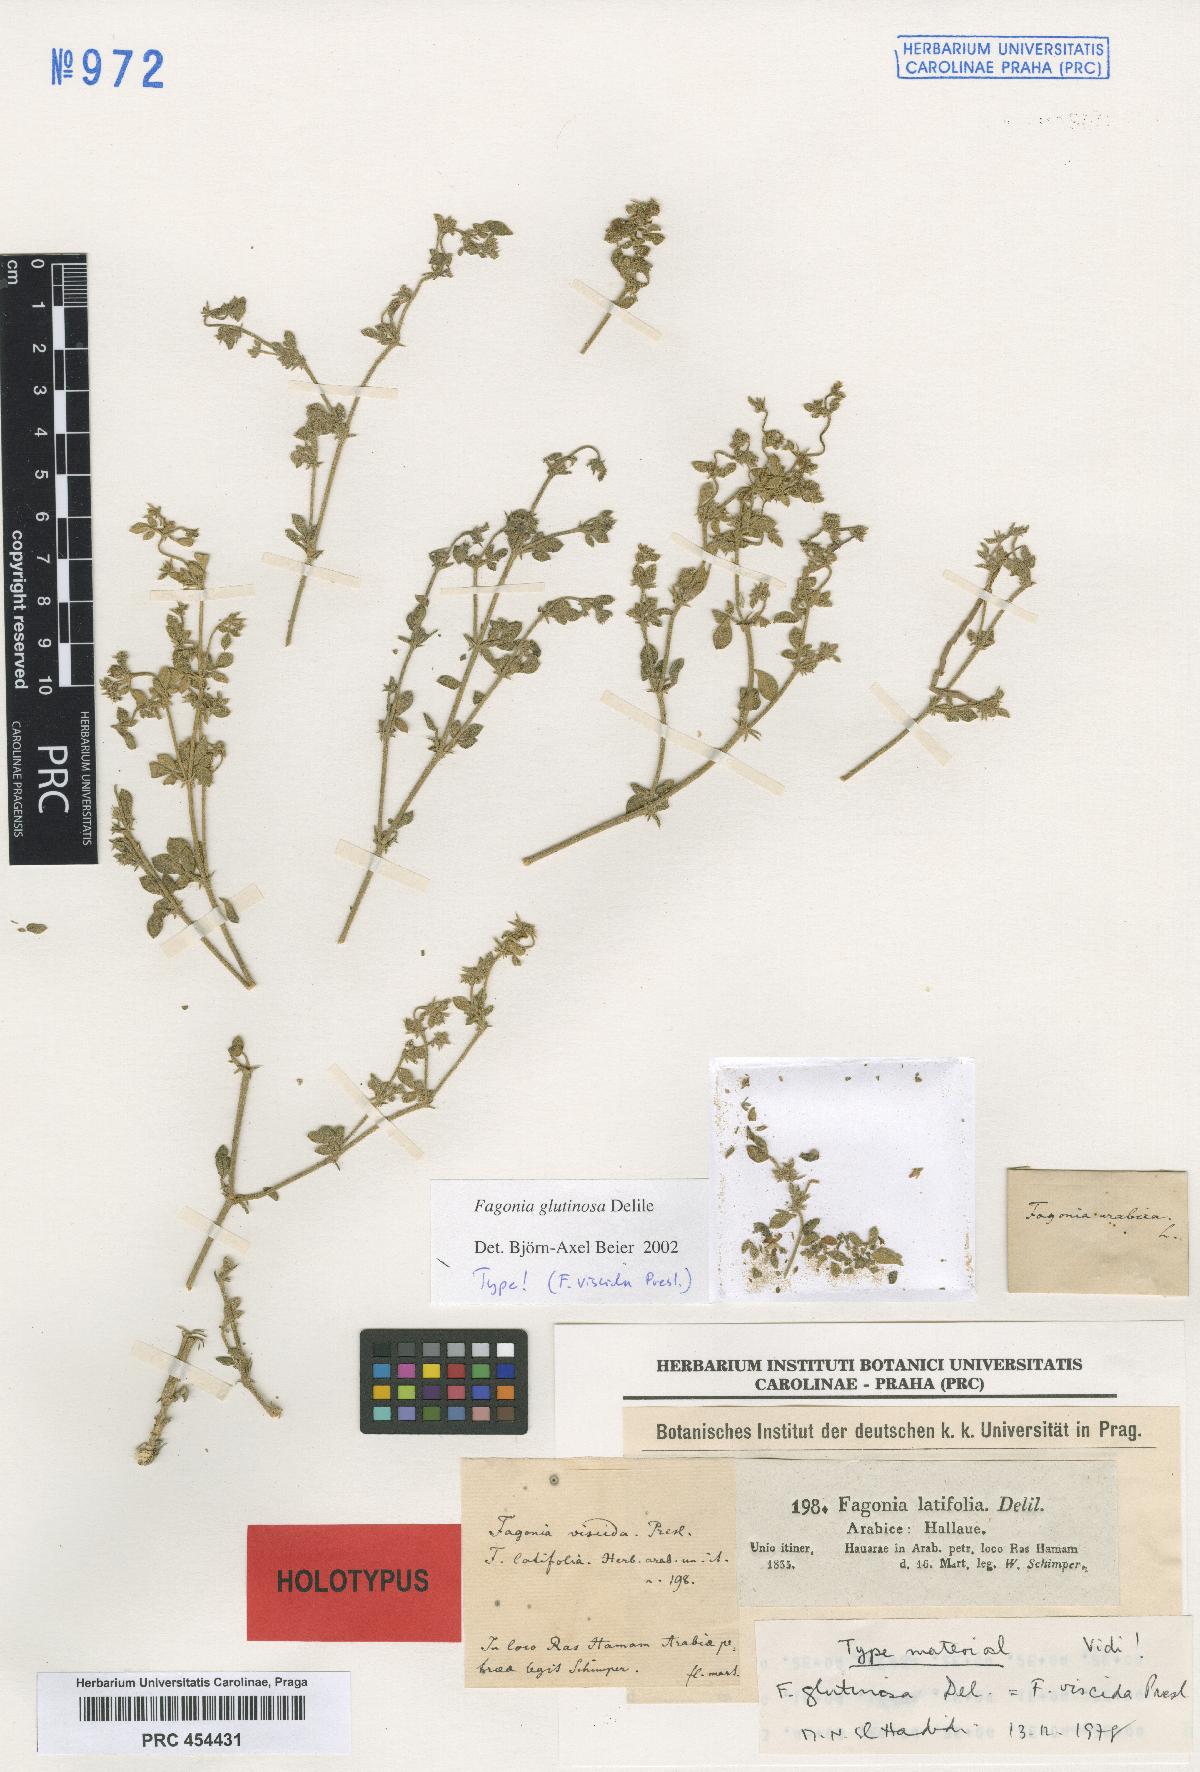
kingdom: Plantae
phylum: Tracheophyta
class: Magnoliopsida
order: Zygophyllales
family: Zygophyllaceae
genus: Fagonia
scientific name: Fagonia glutinosa
